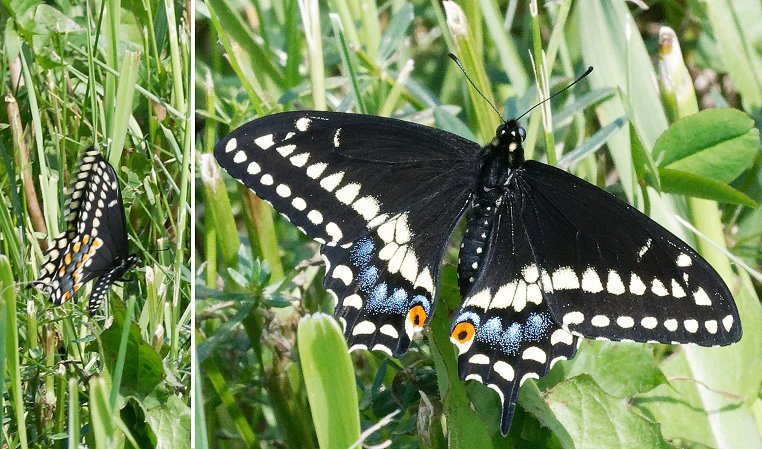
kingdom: Animalia
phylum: Arthropoda
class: Insecta
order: Lepidoptera
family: Papilionidae
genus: Papilio
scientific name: Papilio polyxenes
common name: Black Swallowtail
